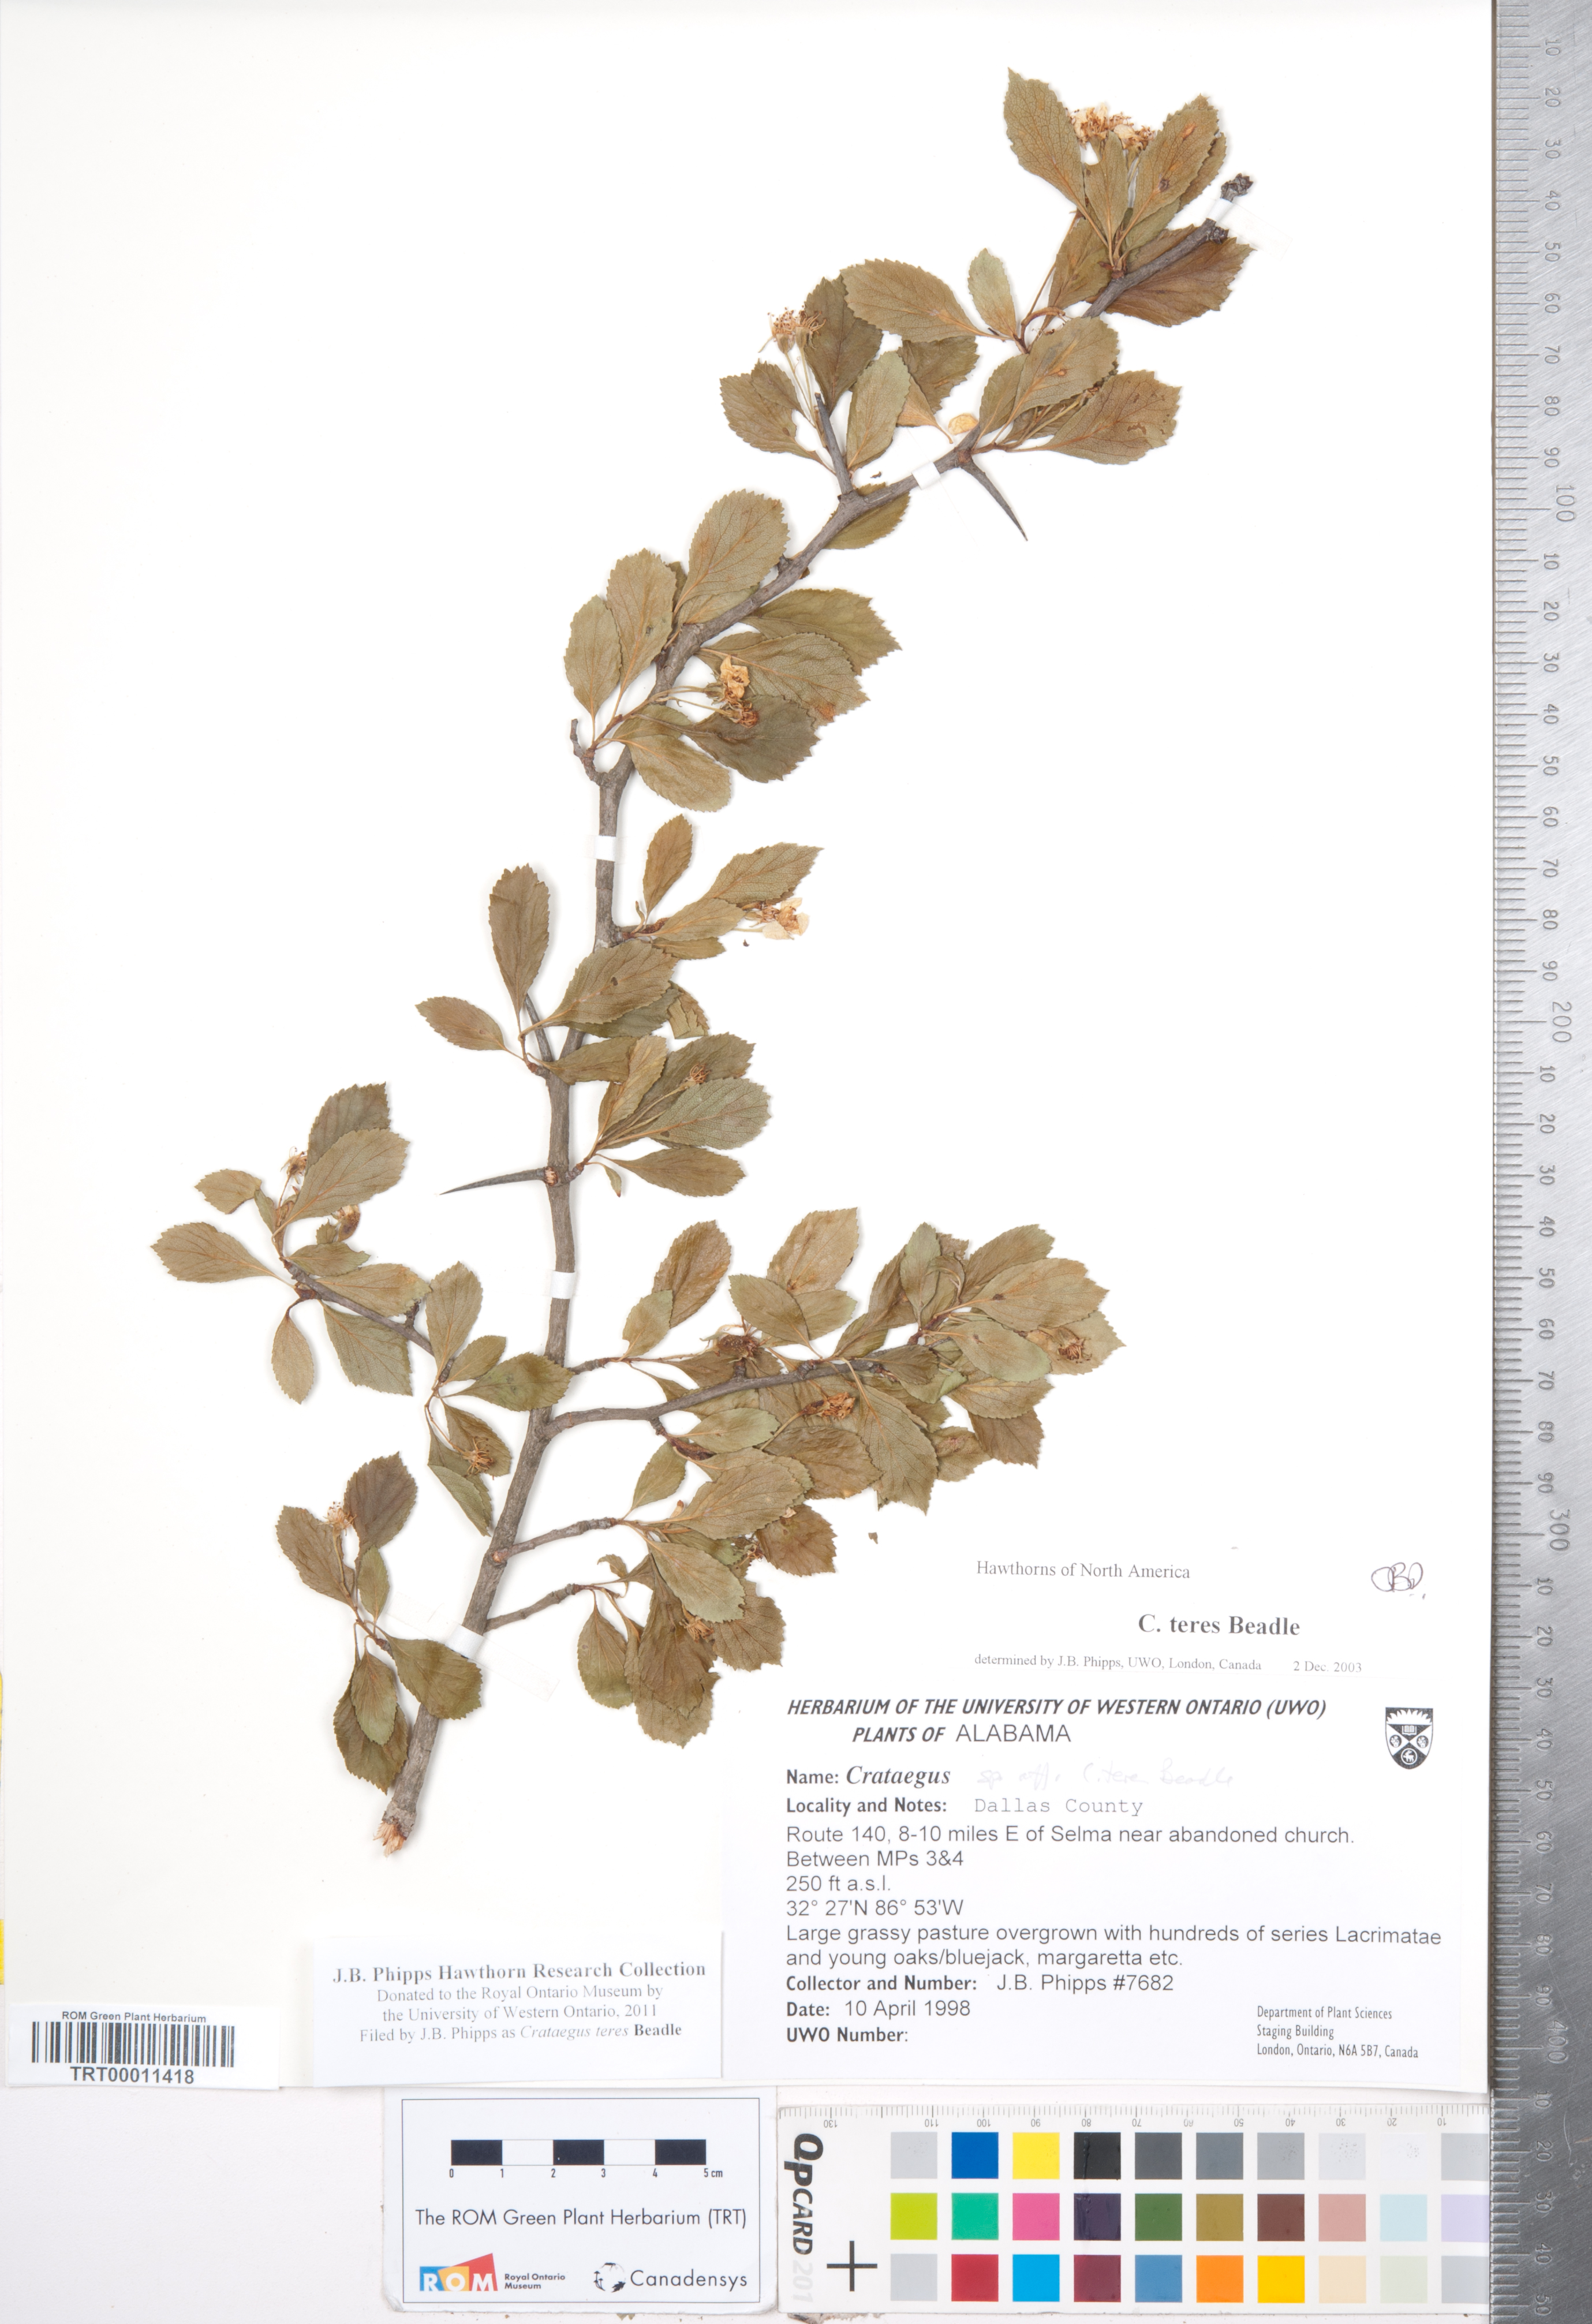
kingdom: Plantae
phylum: Tracheophyta
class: Magnoliopsida
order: Rosales
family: Rosaceae
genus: Crataegus
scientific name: Crataegus alabamensis
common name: Alabama hawthorn
